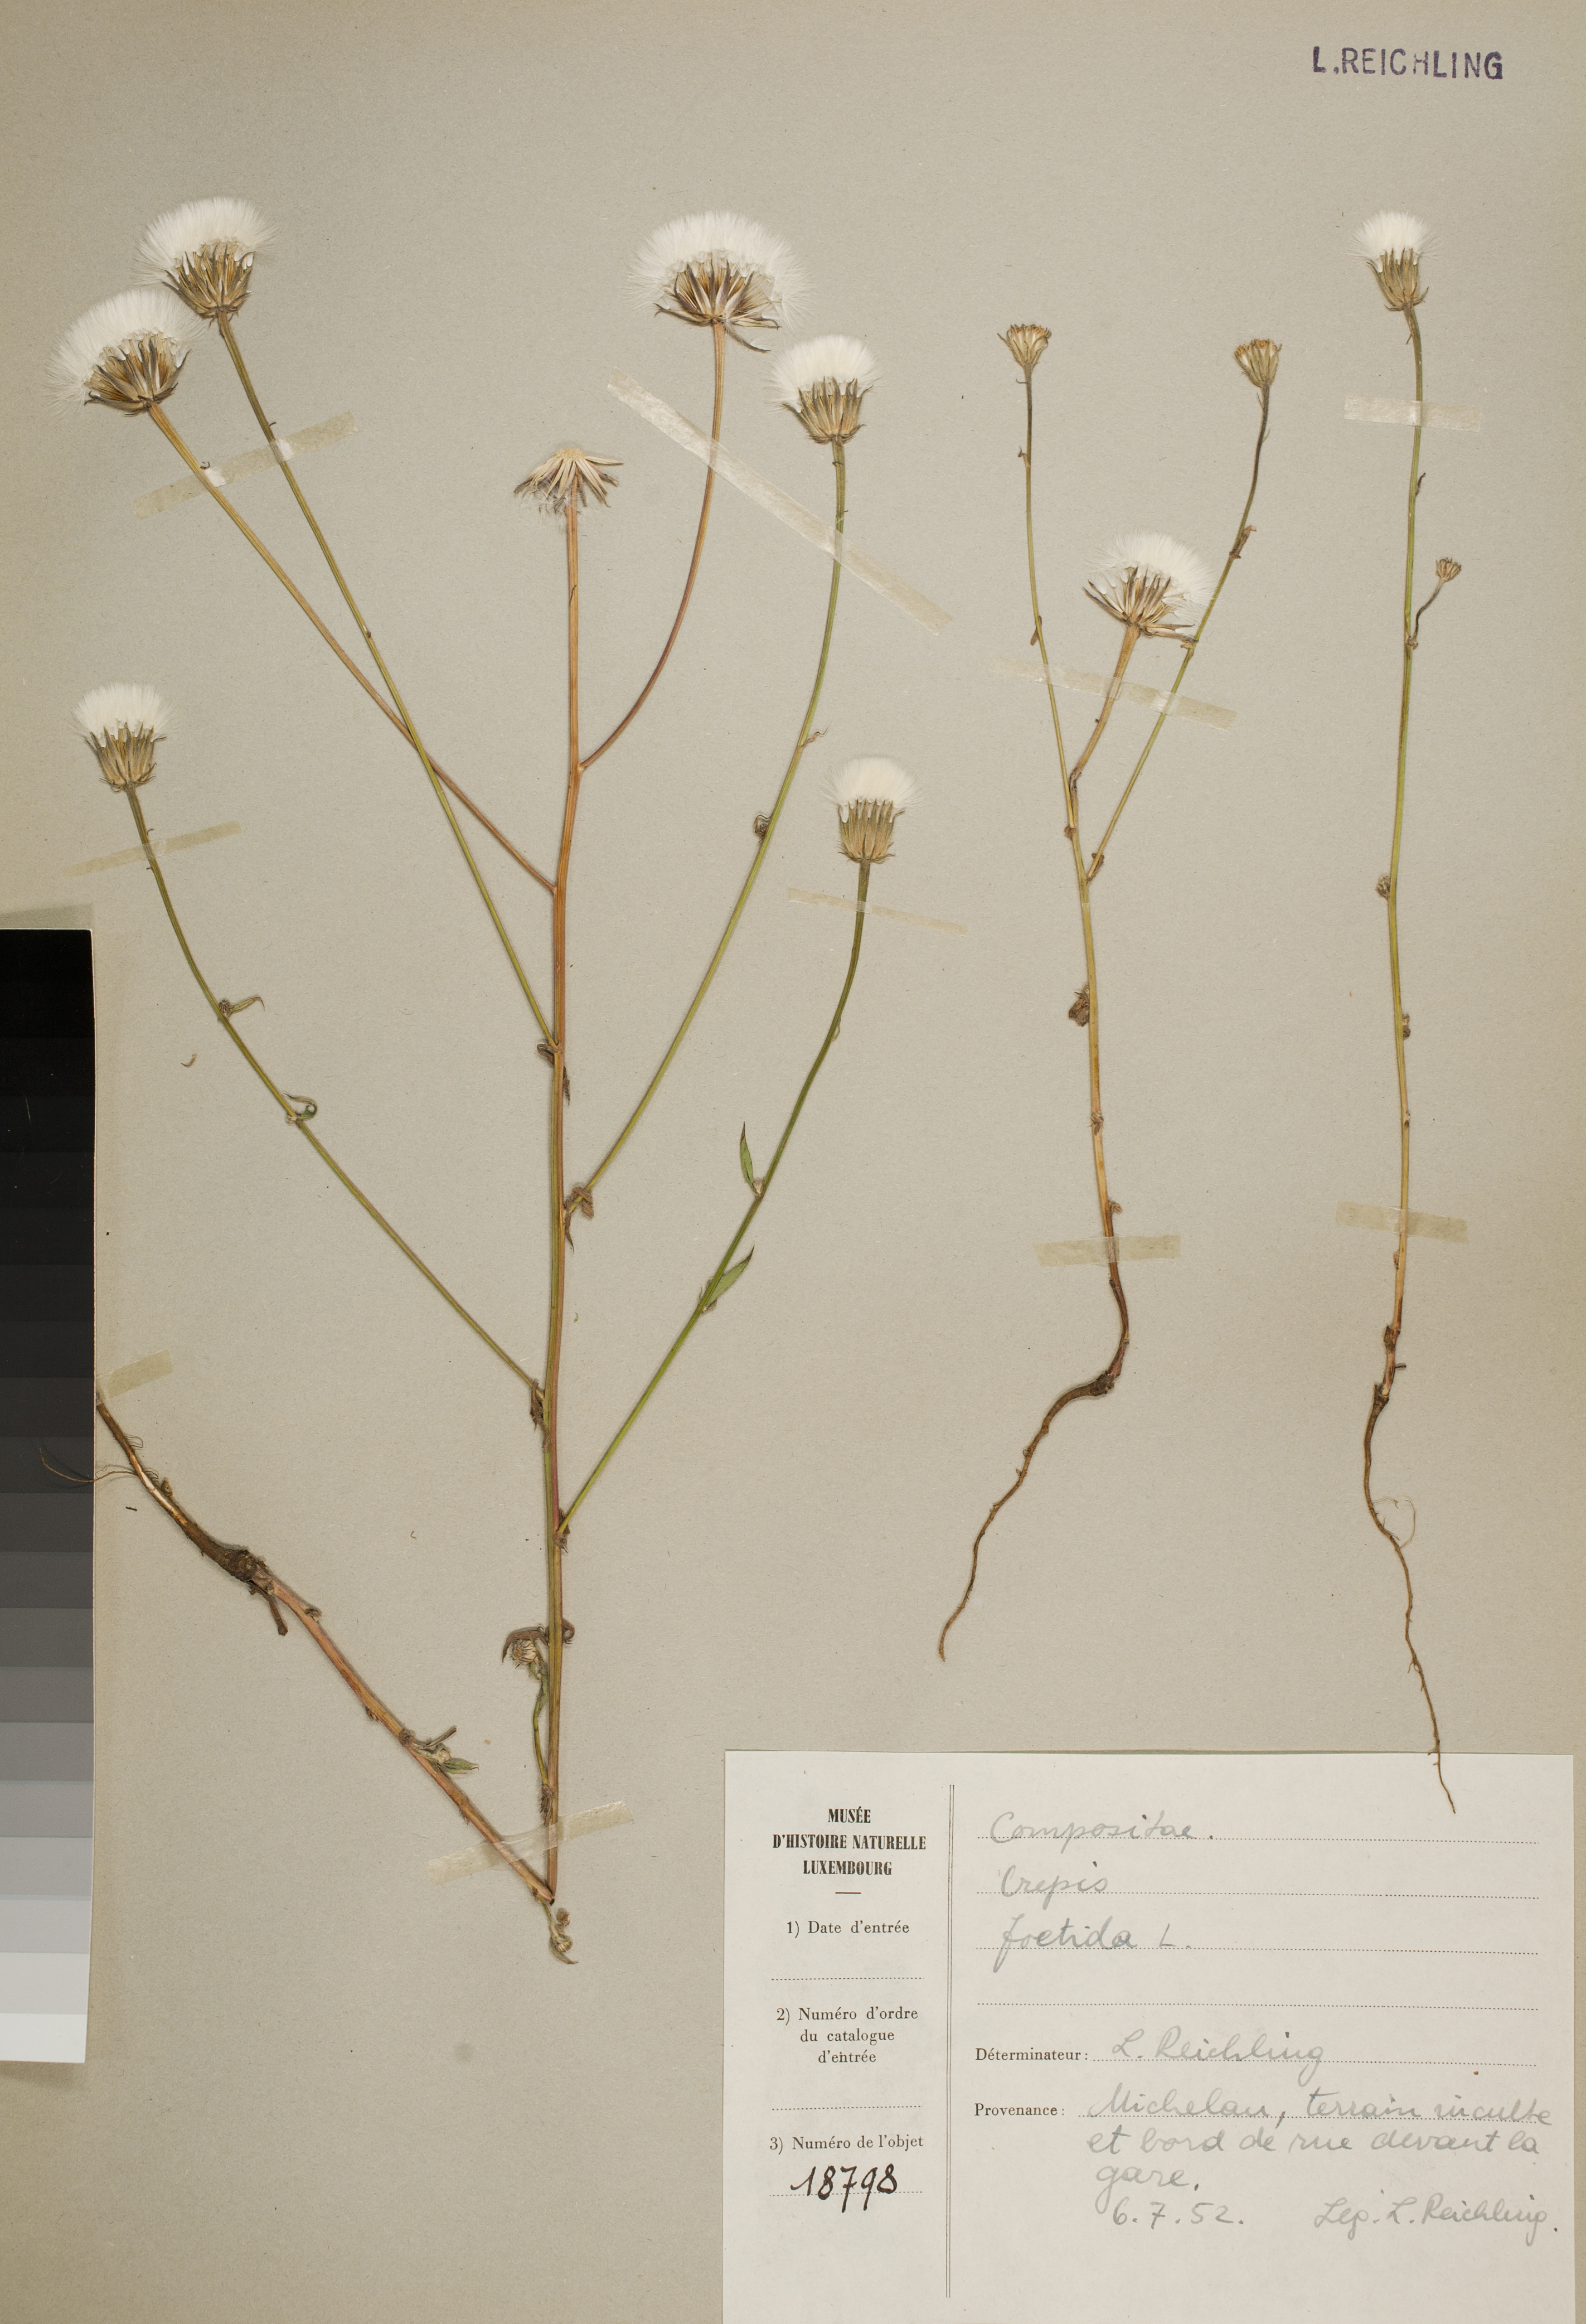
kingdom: Plantae
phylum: Tracheophyta
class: Magnoliopsida
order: Asterales
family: Asteraceae
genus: Crepis
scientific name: Crepis foetida
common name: Stinking hawk's-beard
